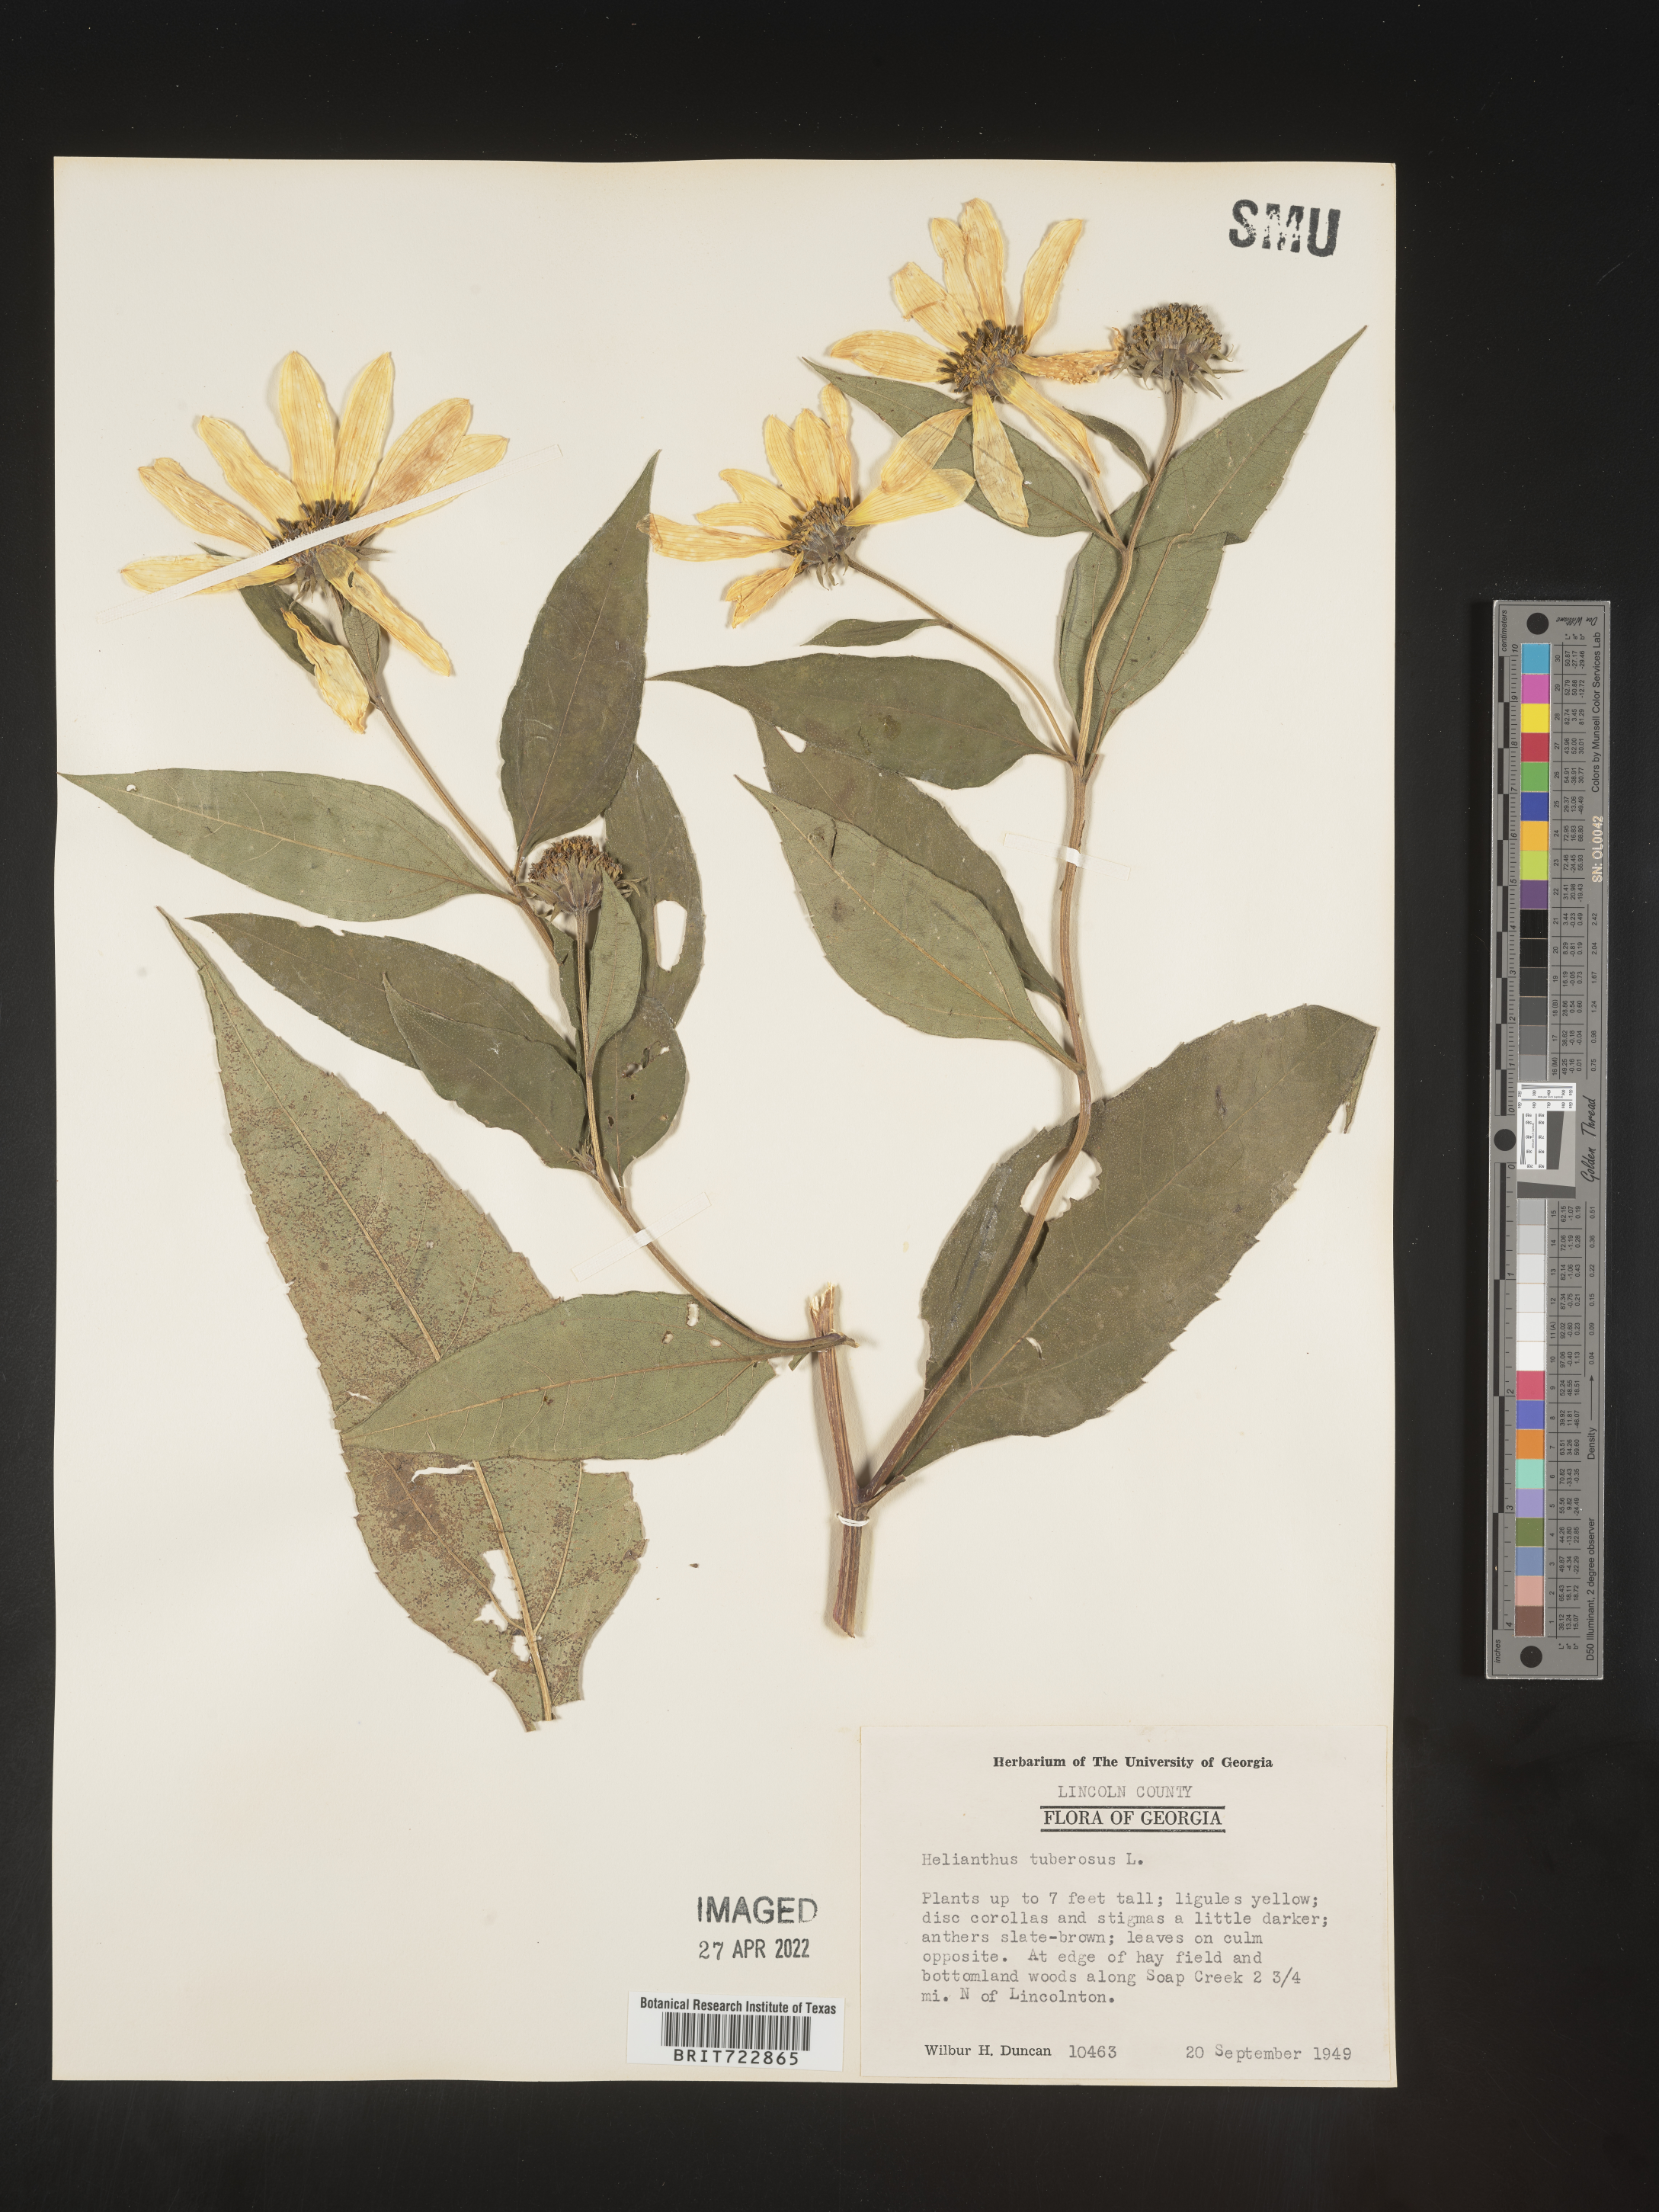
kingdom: Plantae
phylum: Tracheophyta
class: Magnoliopsida
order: Asterales
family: Asteraceae
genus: Helianthus
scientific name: Helianthus tuberosus
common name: Jerusalem artichoke
